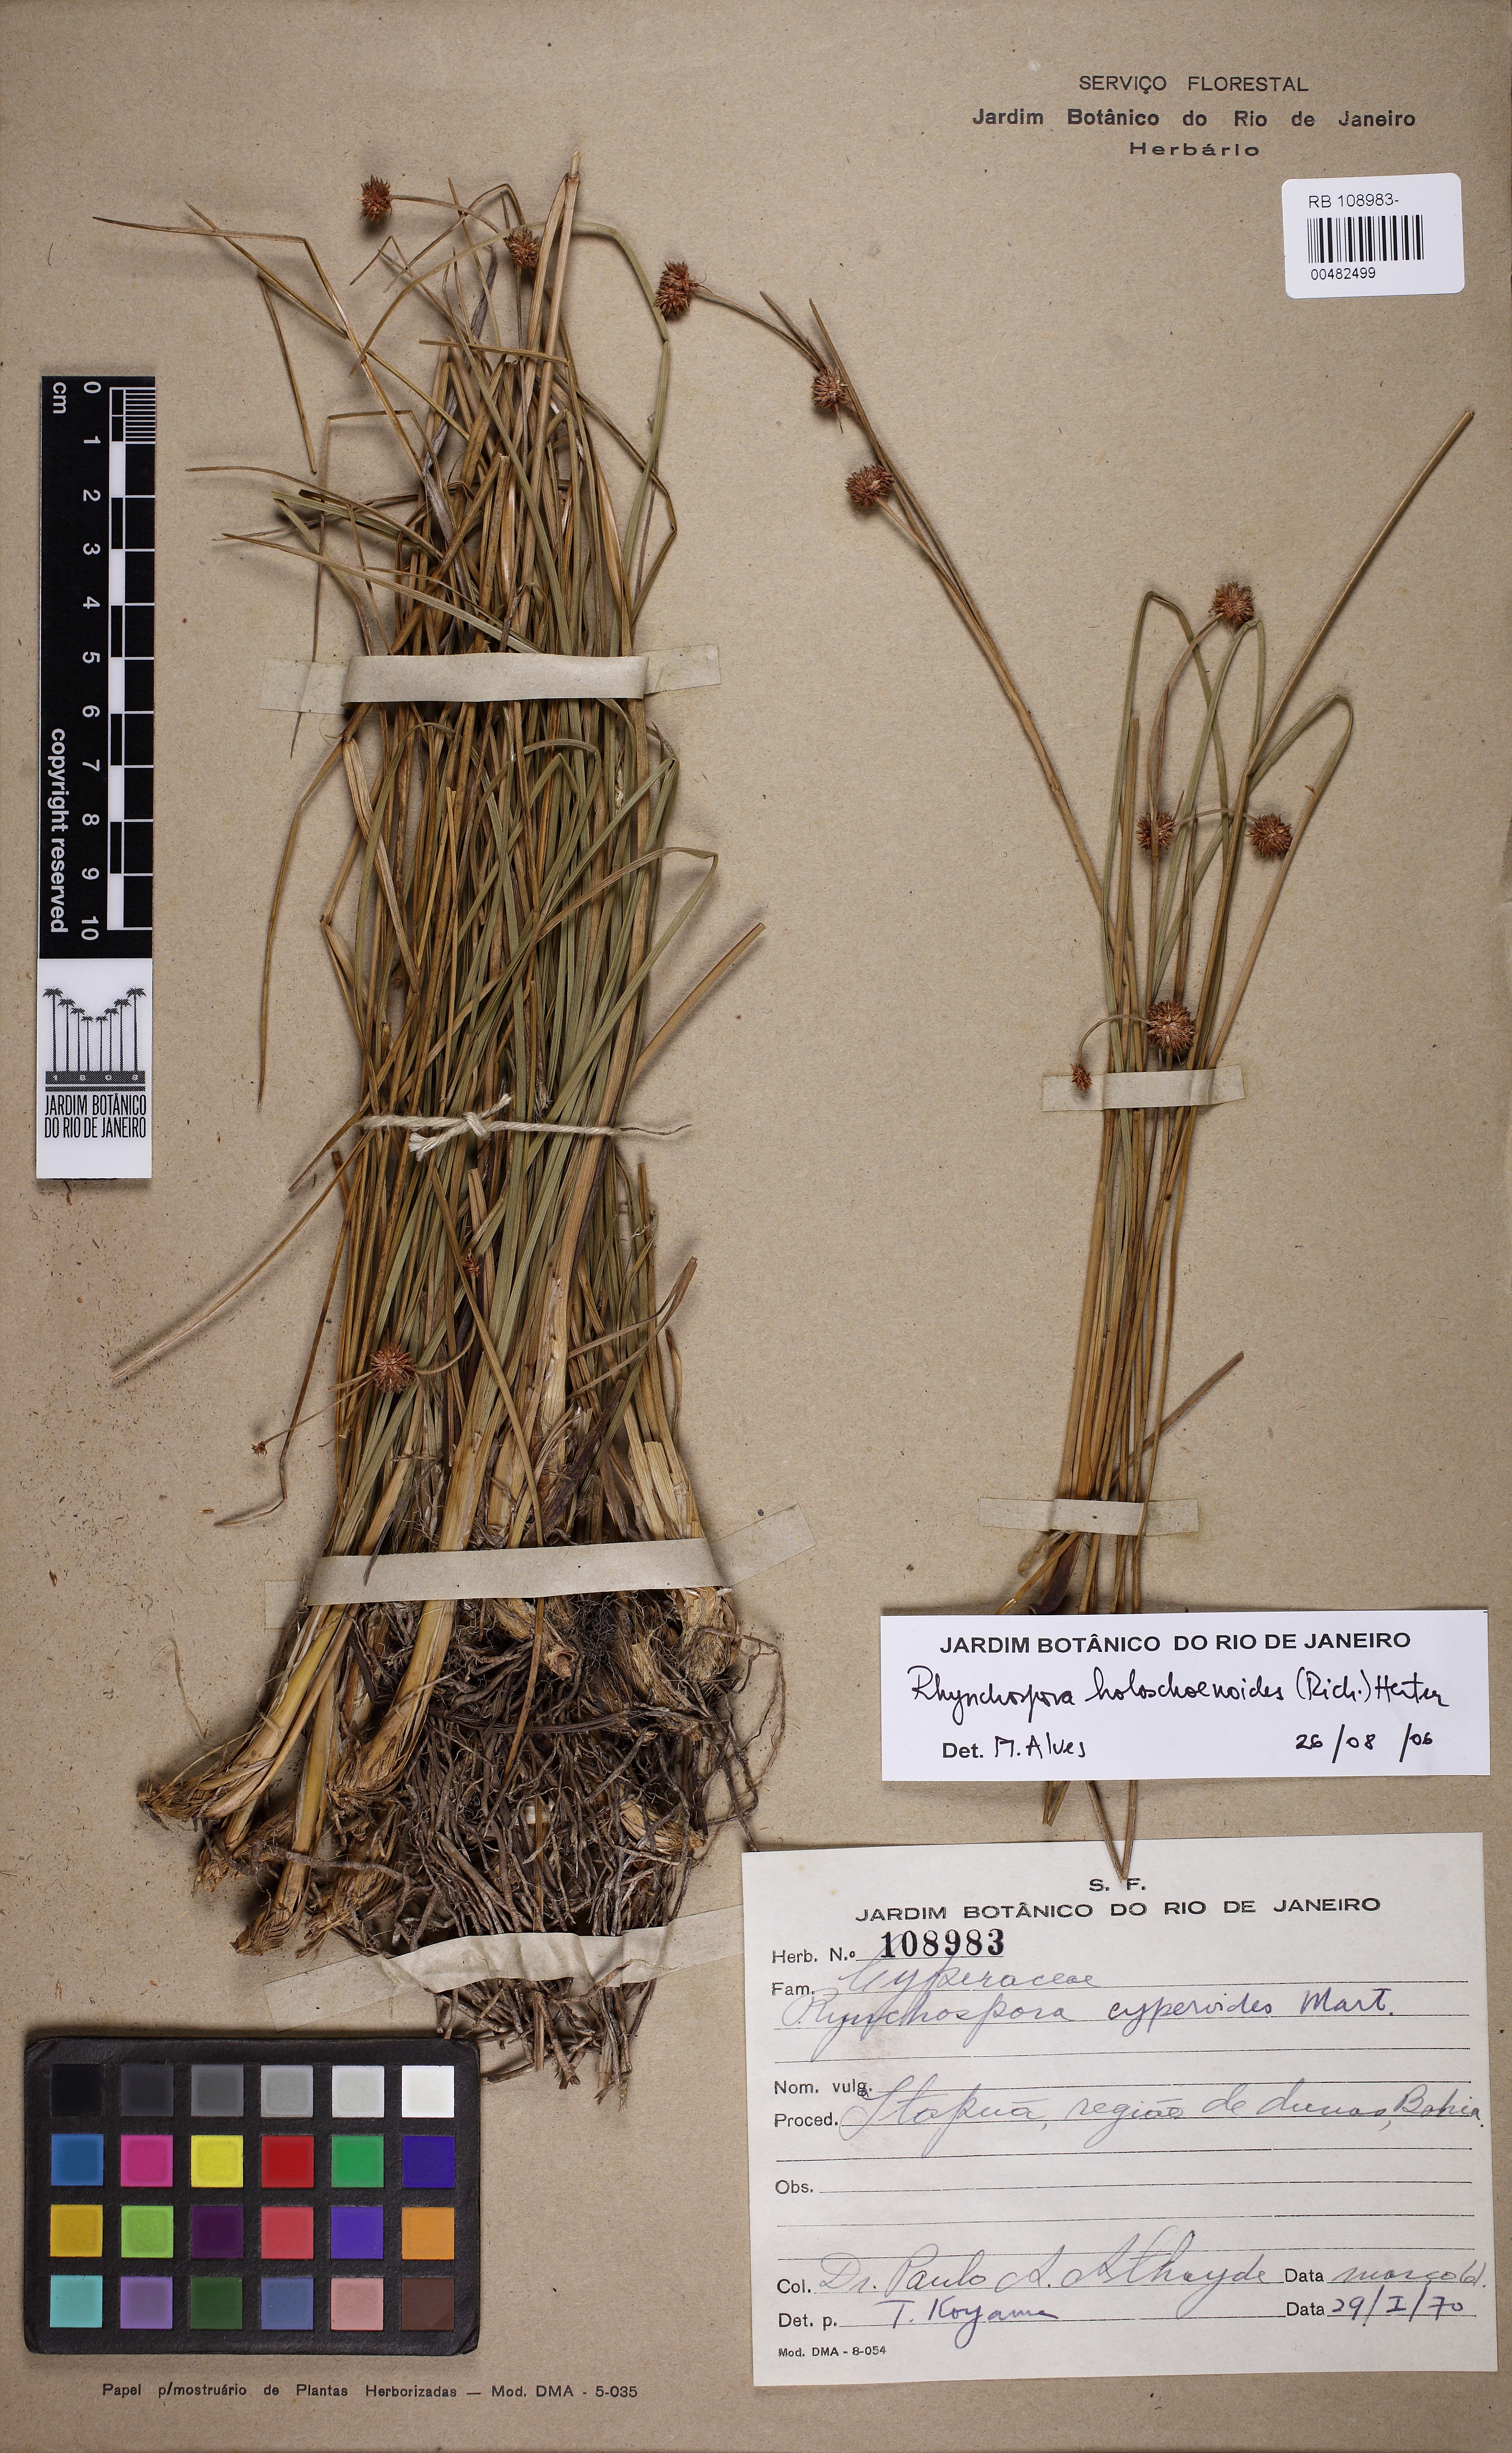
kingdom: Plantae
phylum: Tracheophyta
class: Liliopsida
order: Poales
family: Cyperaceae
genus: Rhynchospora
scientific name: Rhynchospora holoschoenoides
